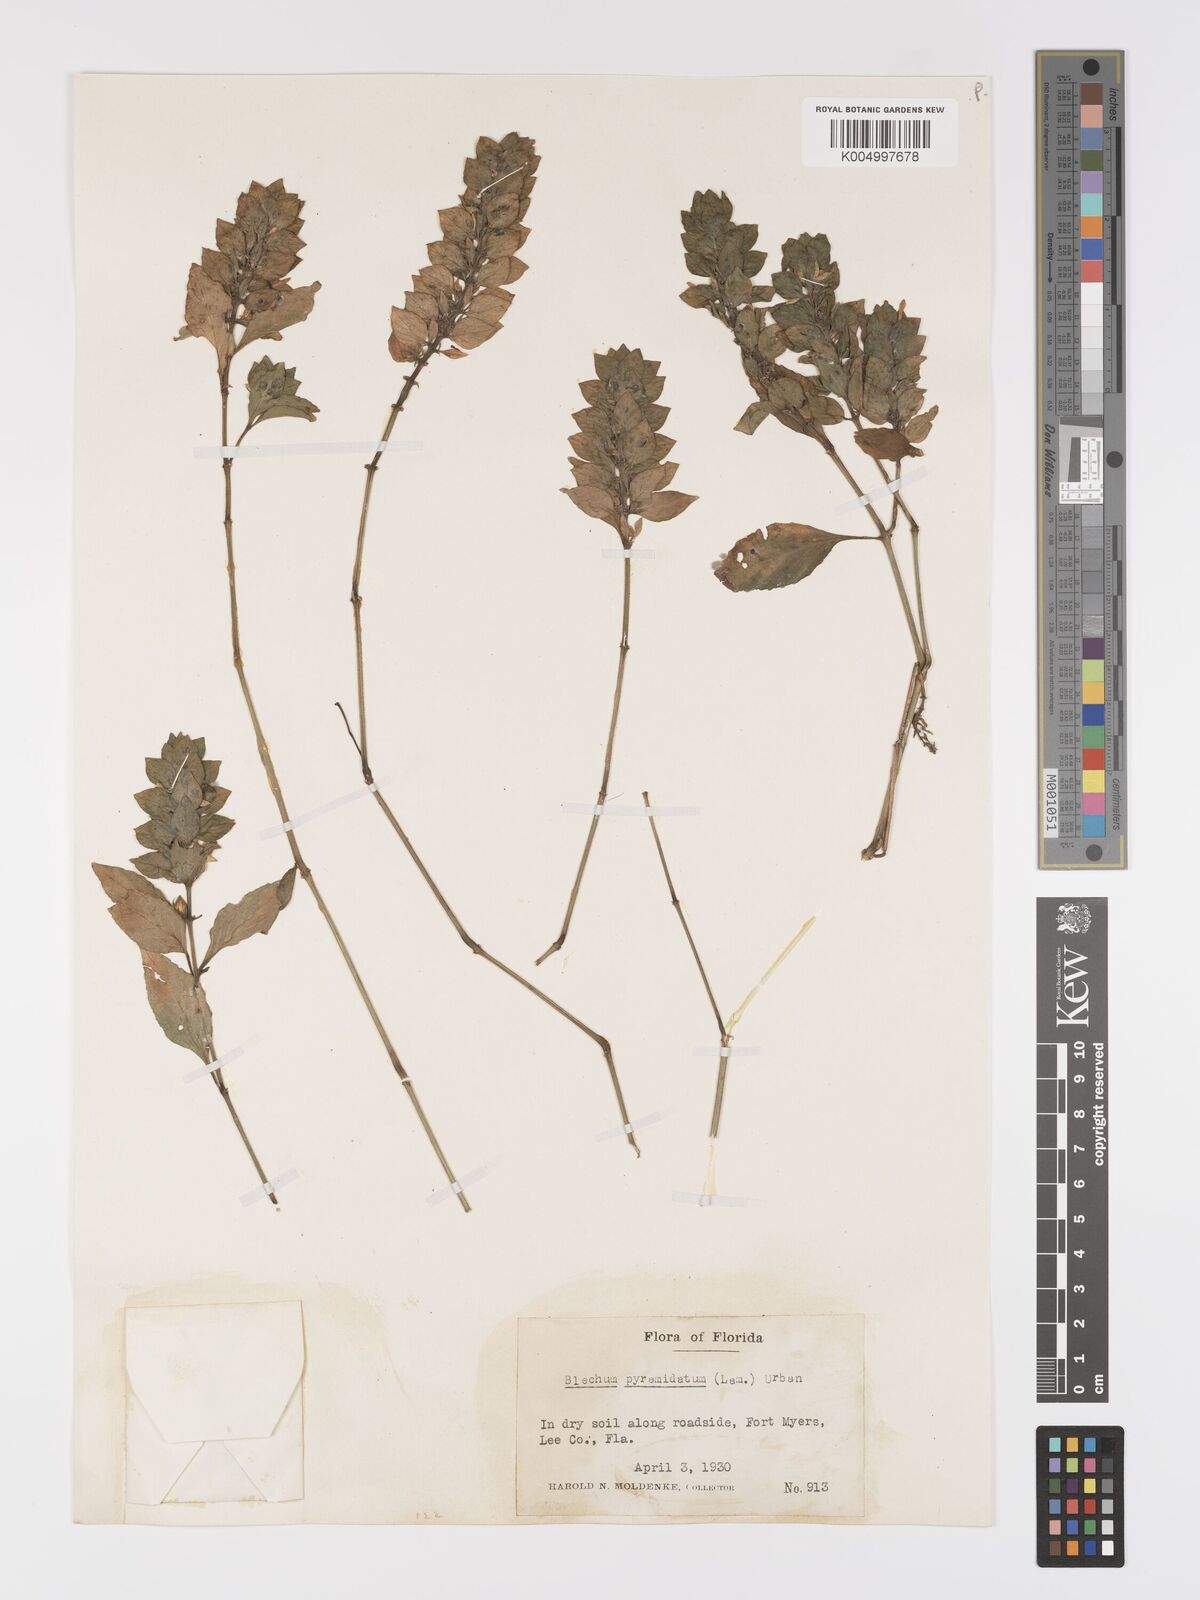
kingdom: Plantae
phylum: Tracheophyta
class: Magnoliopsida
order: Lamiales
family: Acanthaceae
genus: Ruellia
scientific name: Ruellia blechum
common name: Browne's blechum
